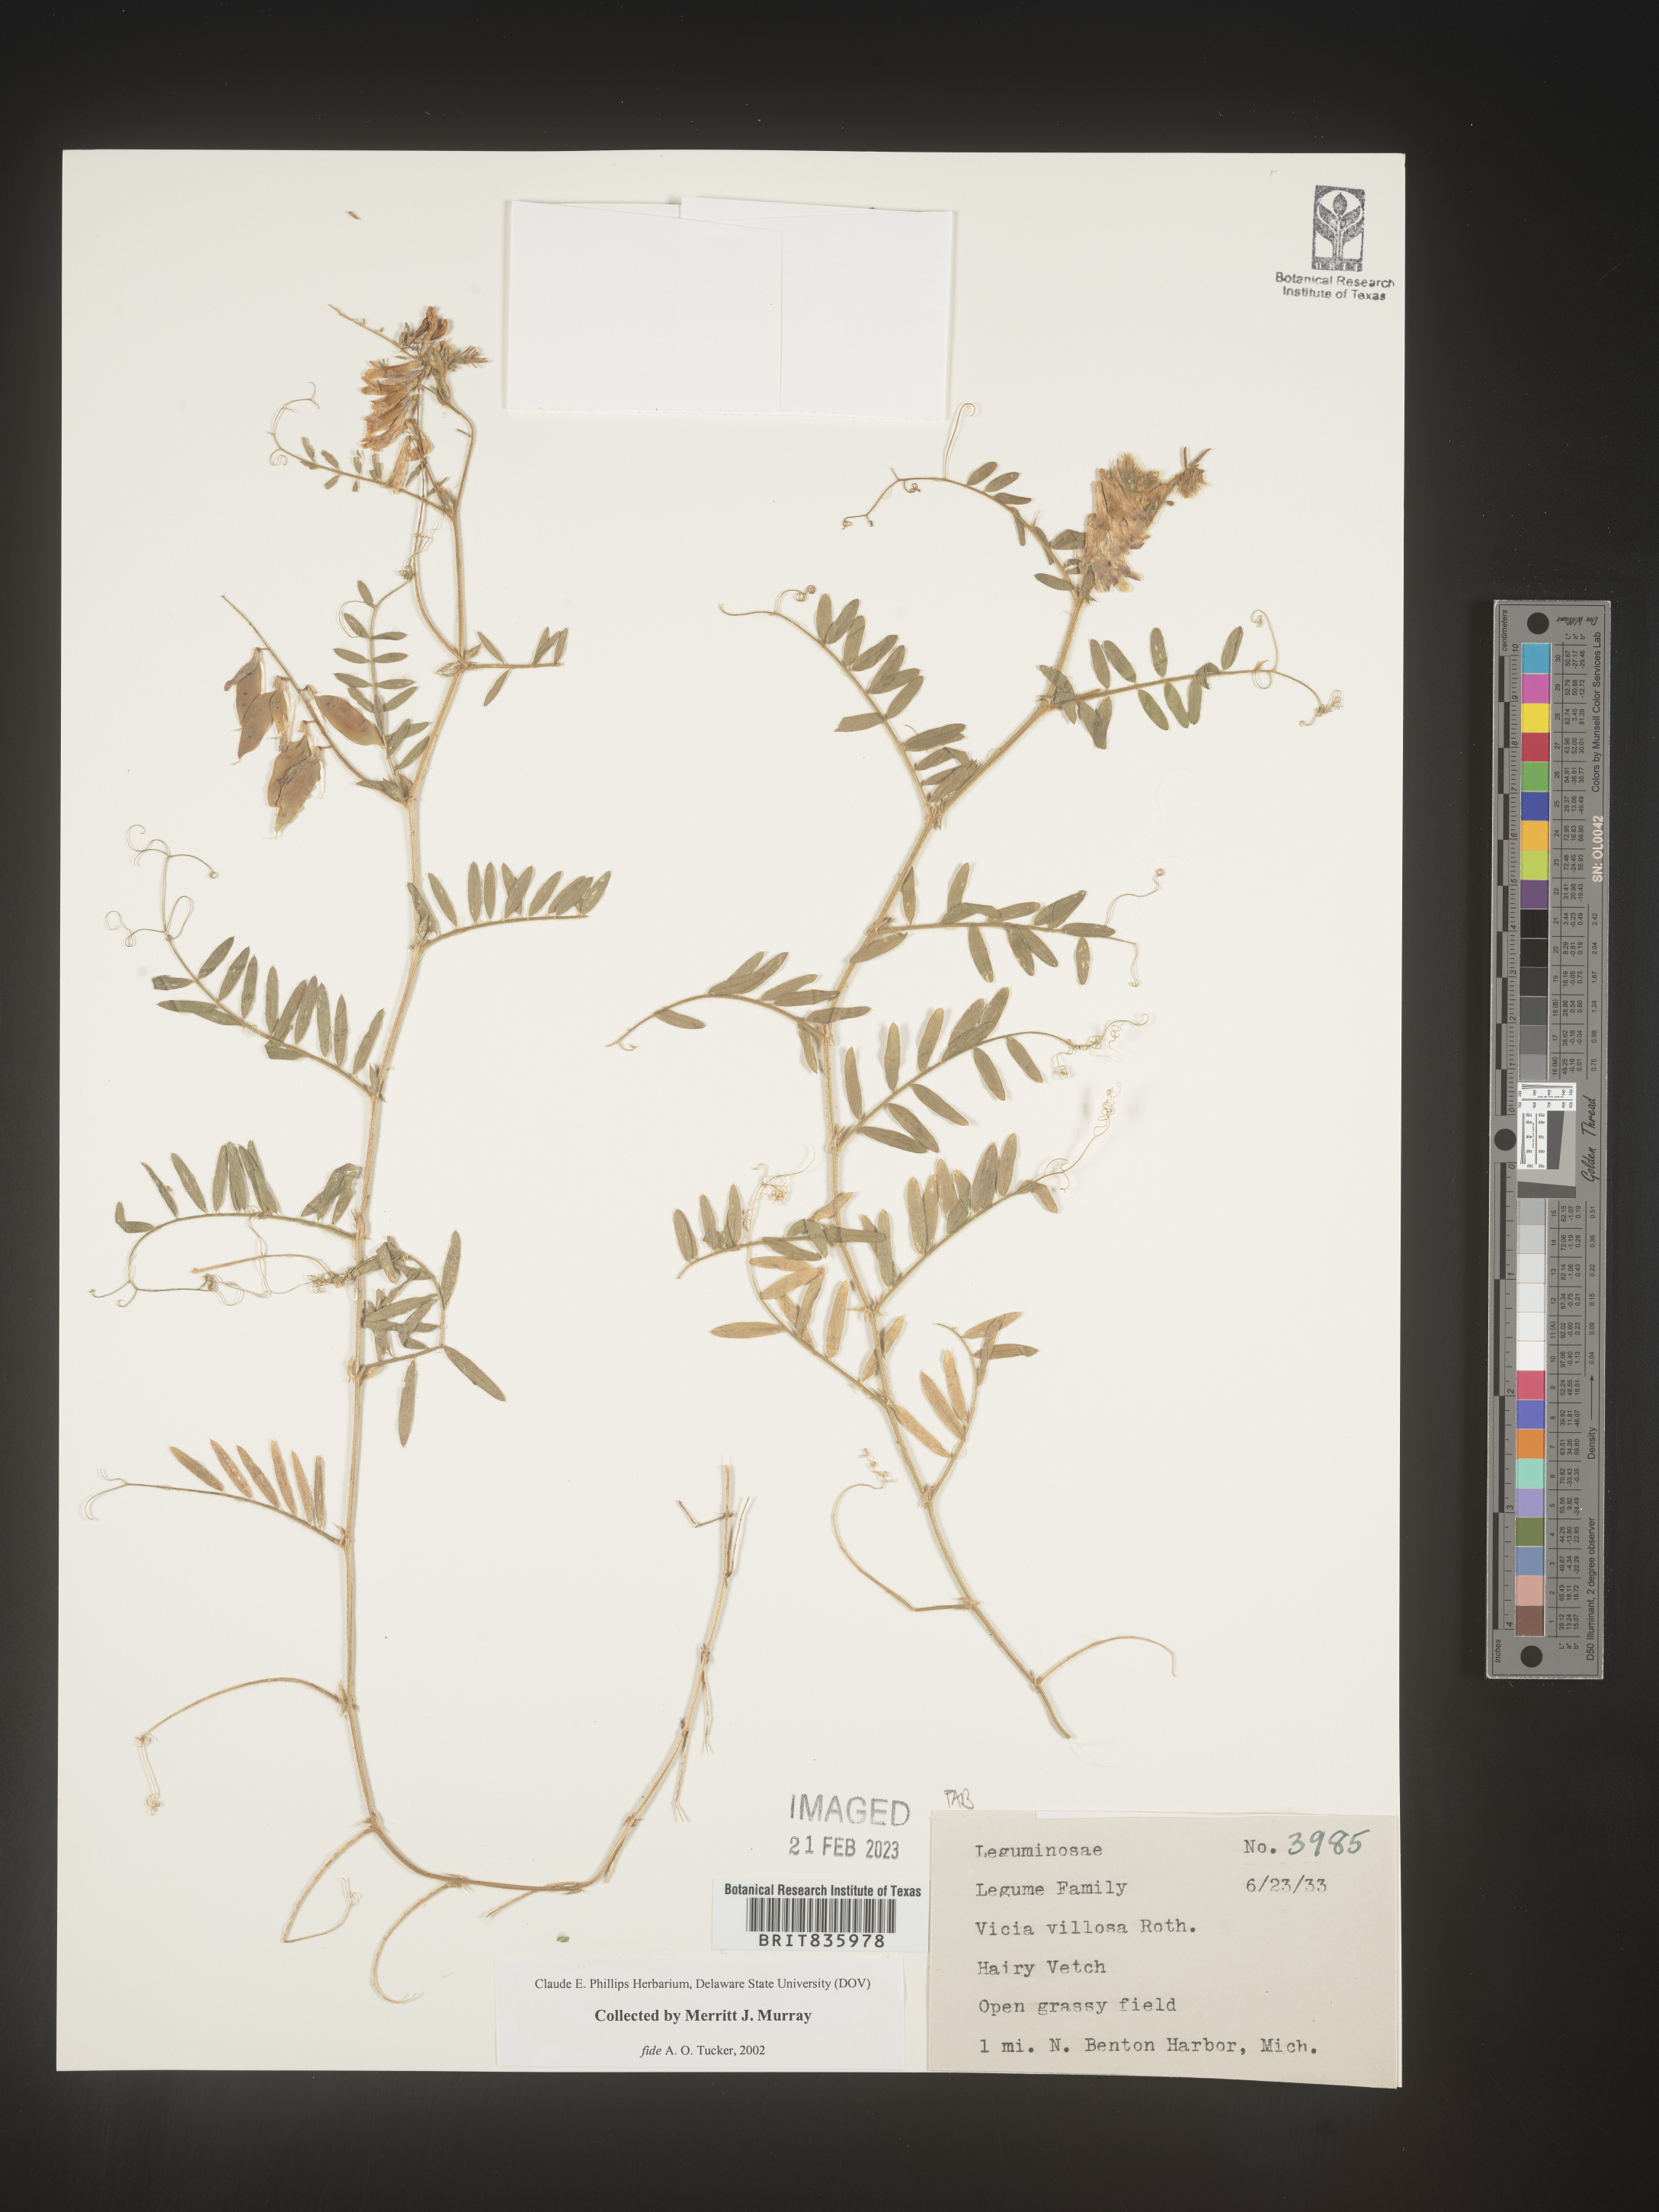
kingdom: Plantae
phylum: Tracheophyta
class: Magnoliopsida
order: Fabales
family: Fabaceae
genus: Vicia
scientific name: Vicia villosa
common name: Fodder vetch
